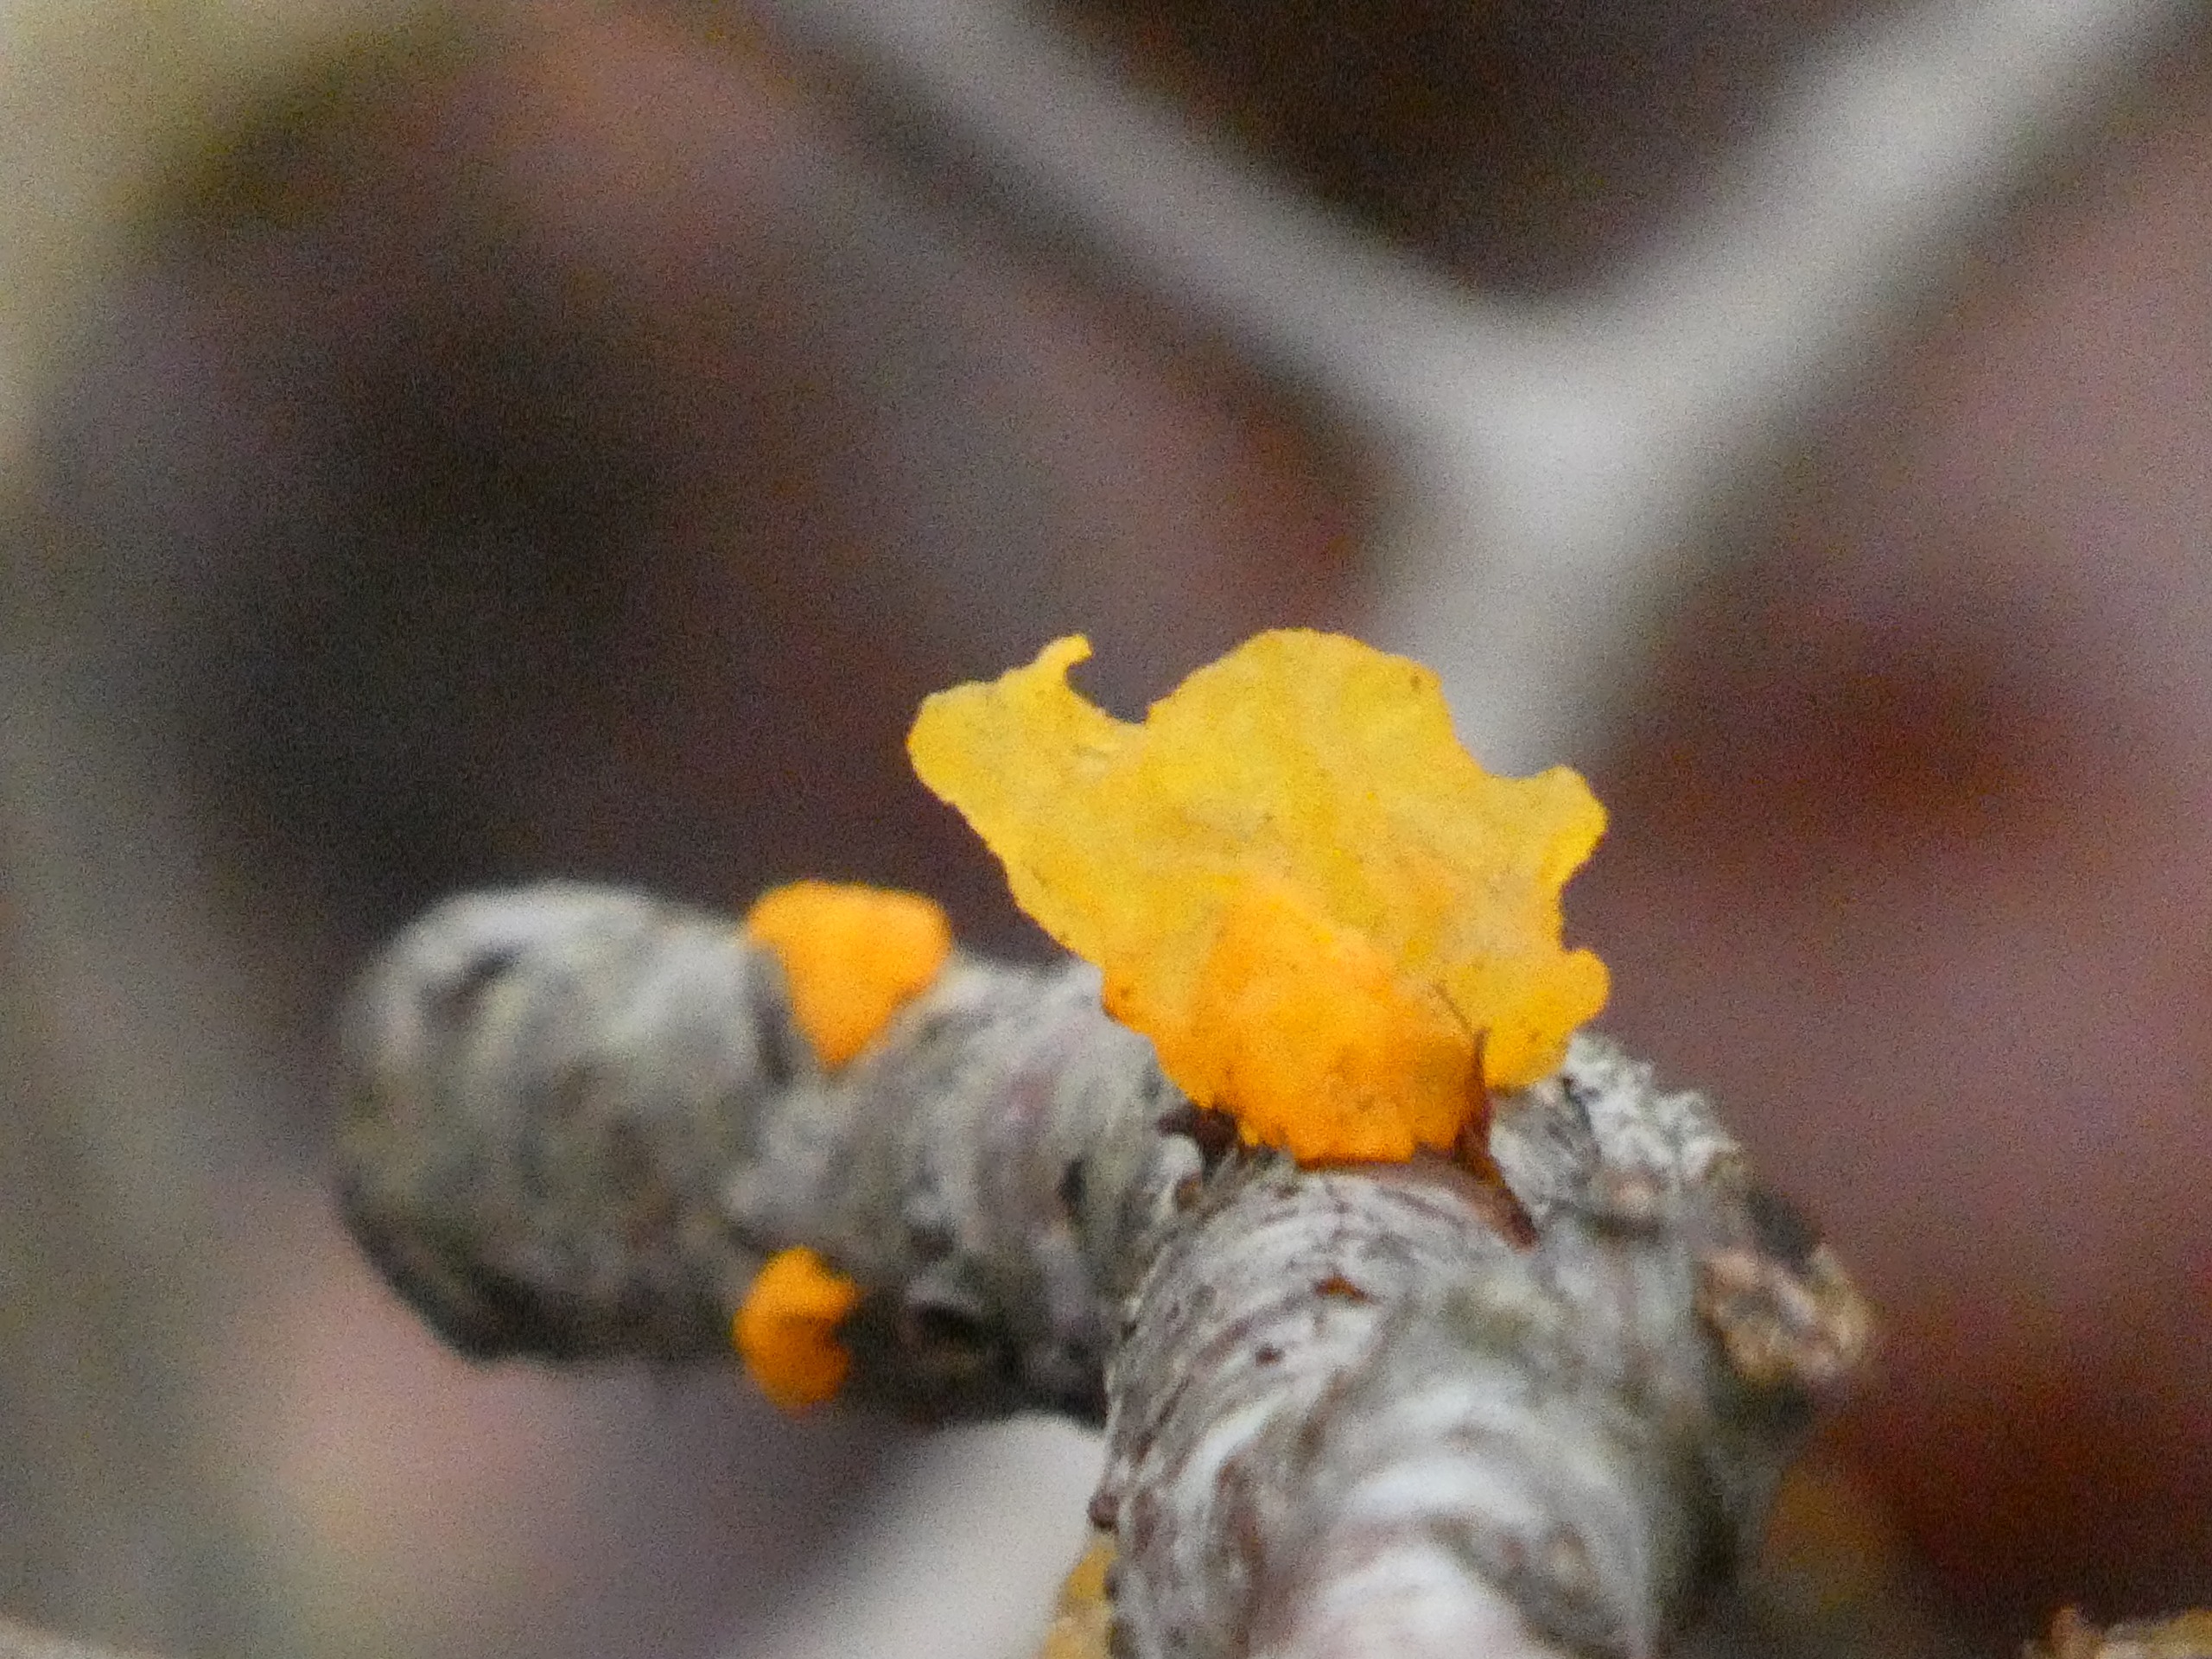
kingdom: Fungi
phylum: Basidiomycota
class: Tremellomycetes
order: Tremellales
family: Tremellaceae
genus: Tremella
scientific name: Tremella mesenterica
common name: Gul bævresvamp
